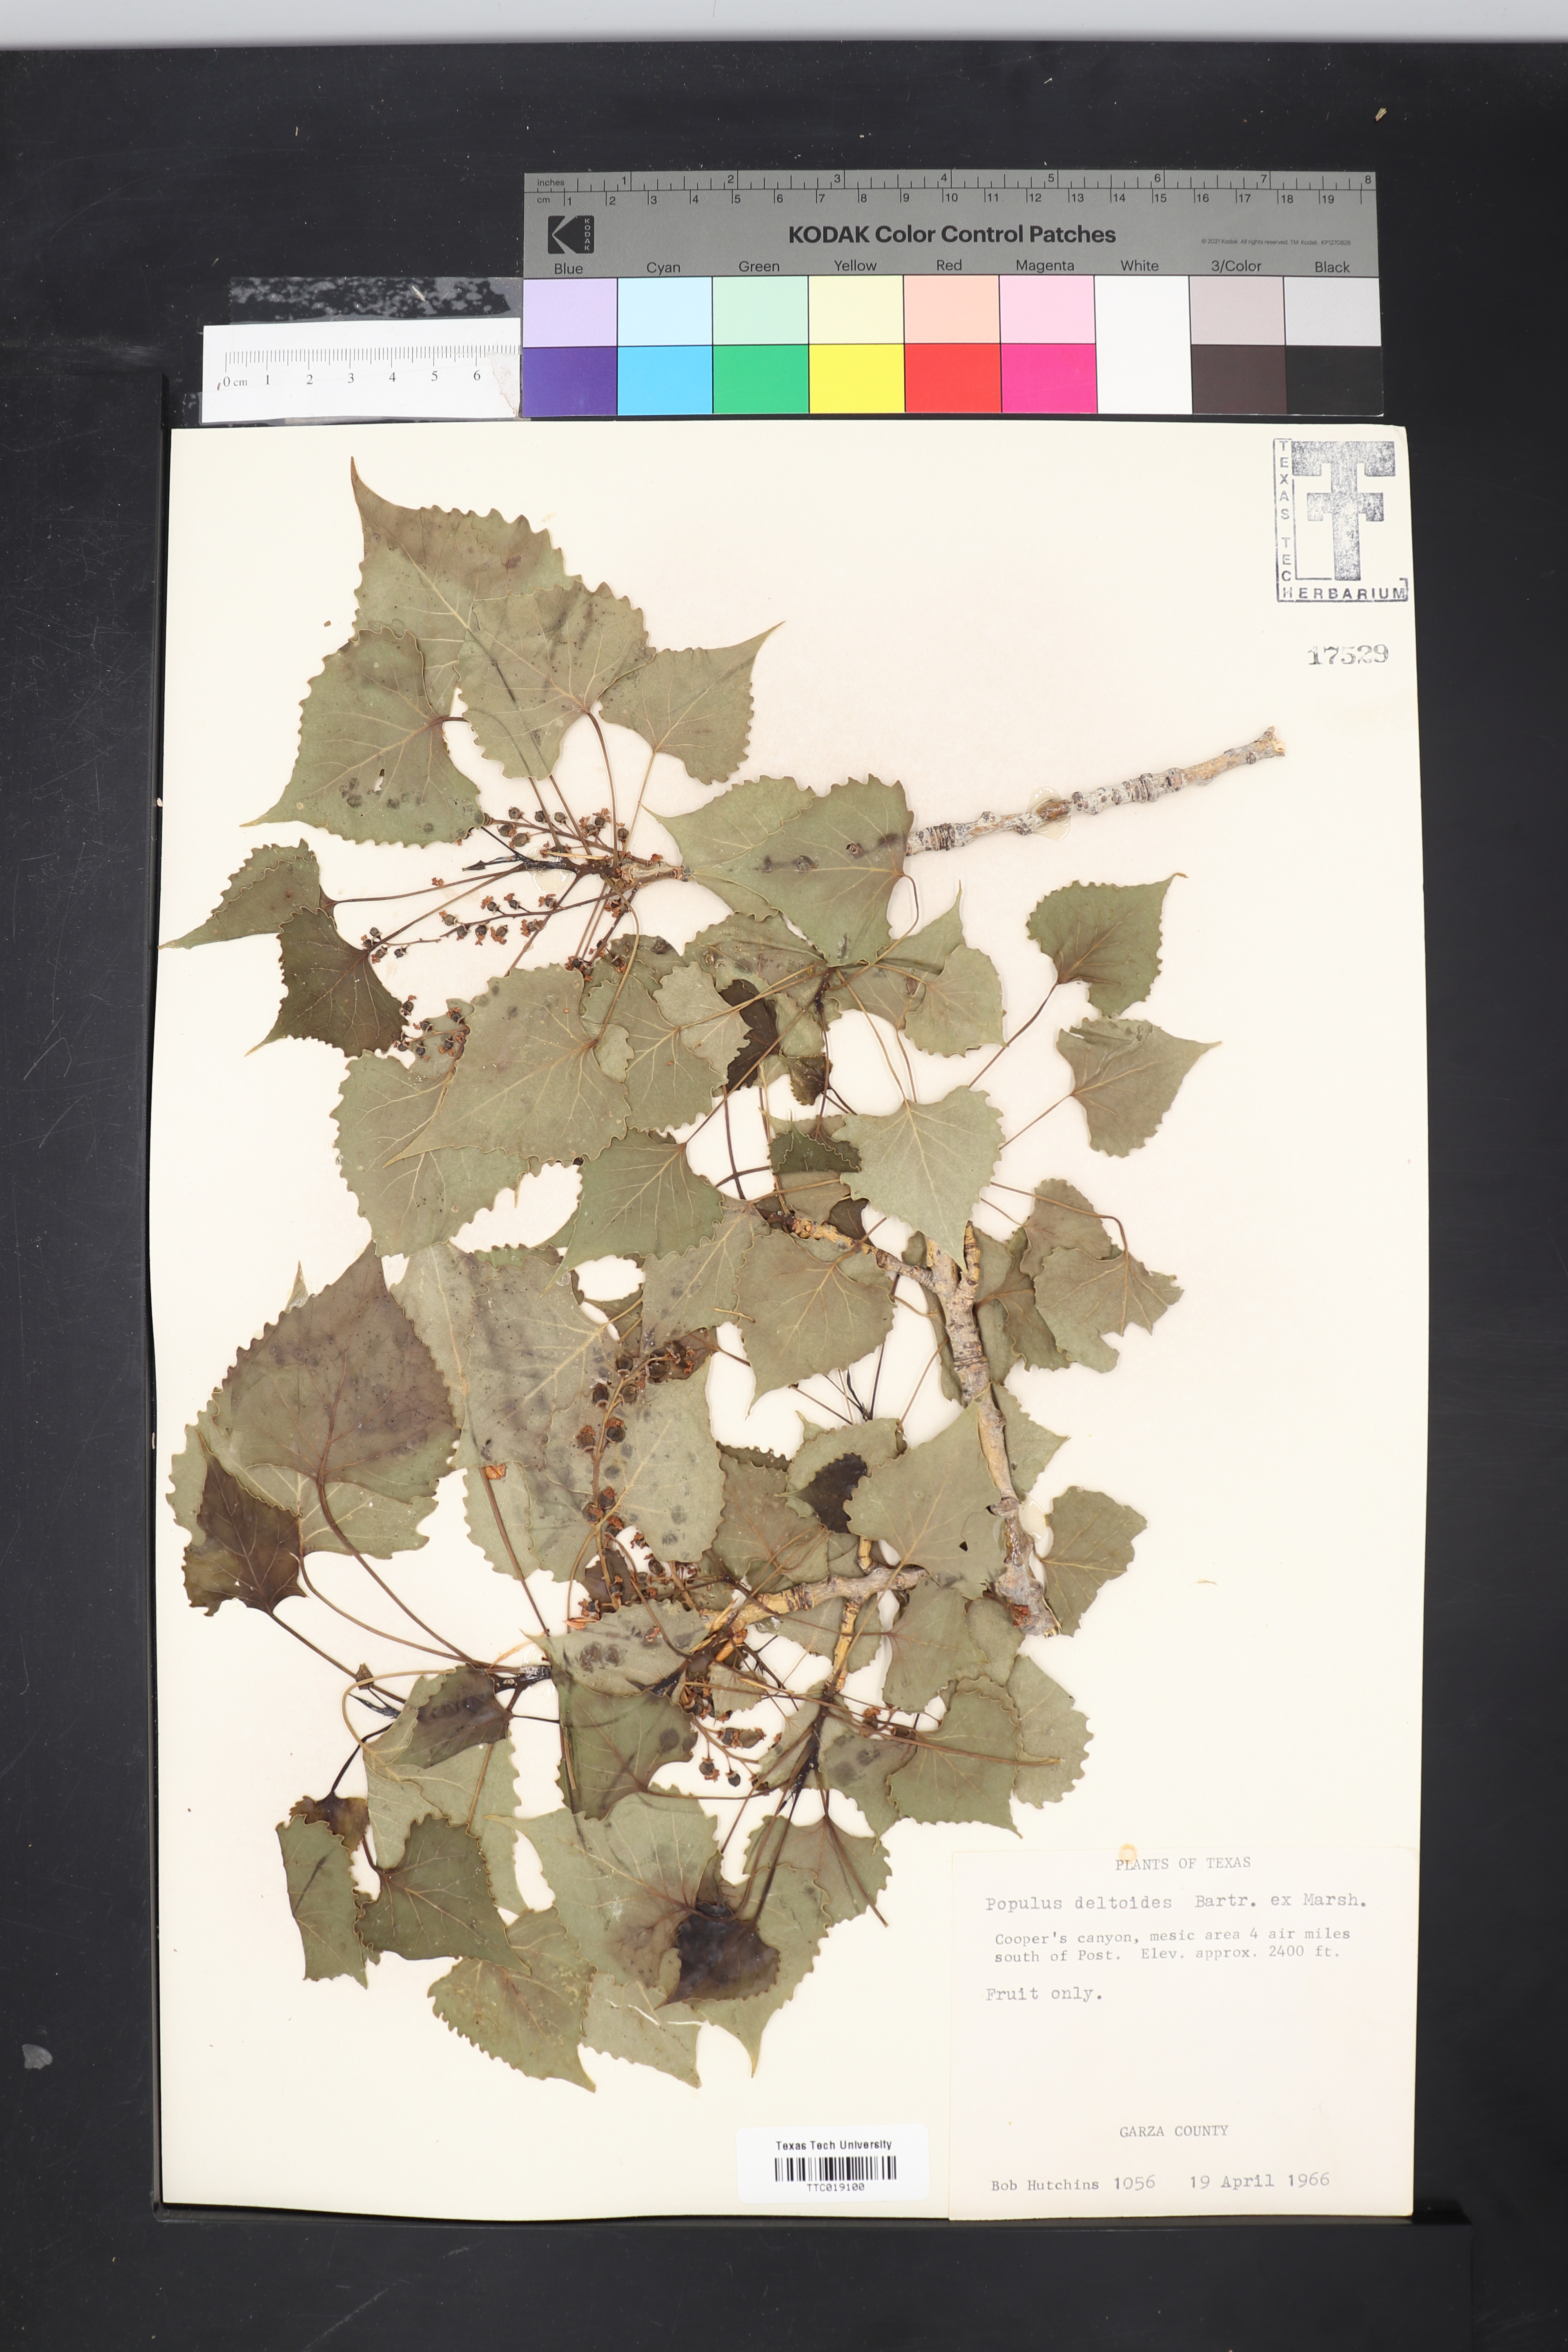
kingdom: Plantae
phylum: Tracheophyta
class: Magnoliopsida
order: Malpighiales
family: Salicaceae
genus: Populus
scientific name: Populus deltoides
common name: Eastern cottonwood
